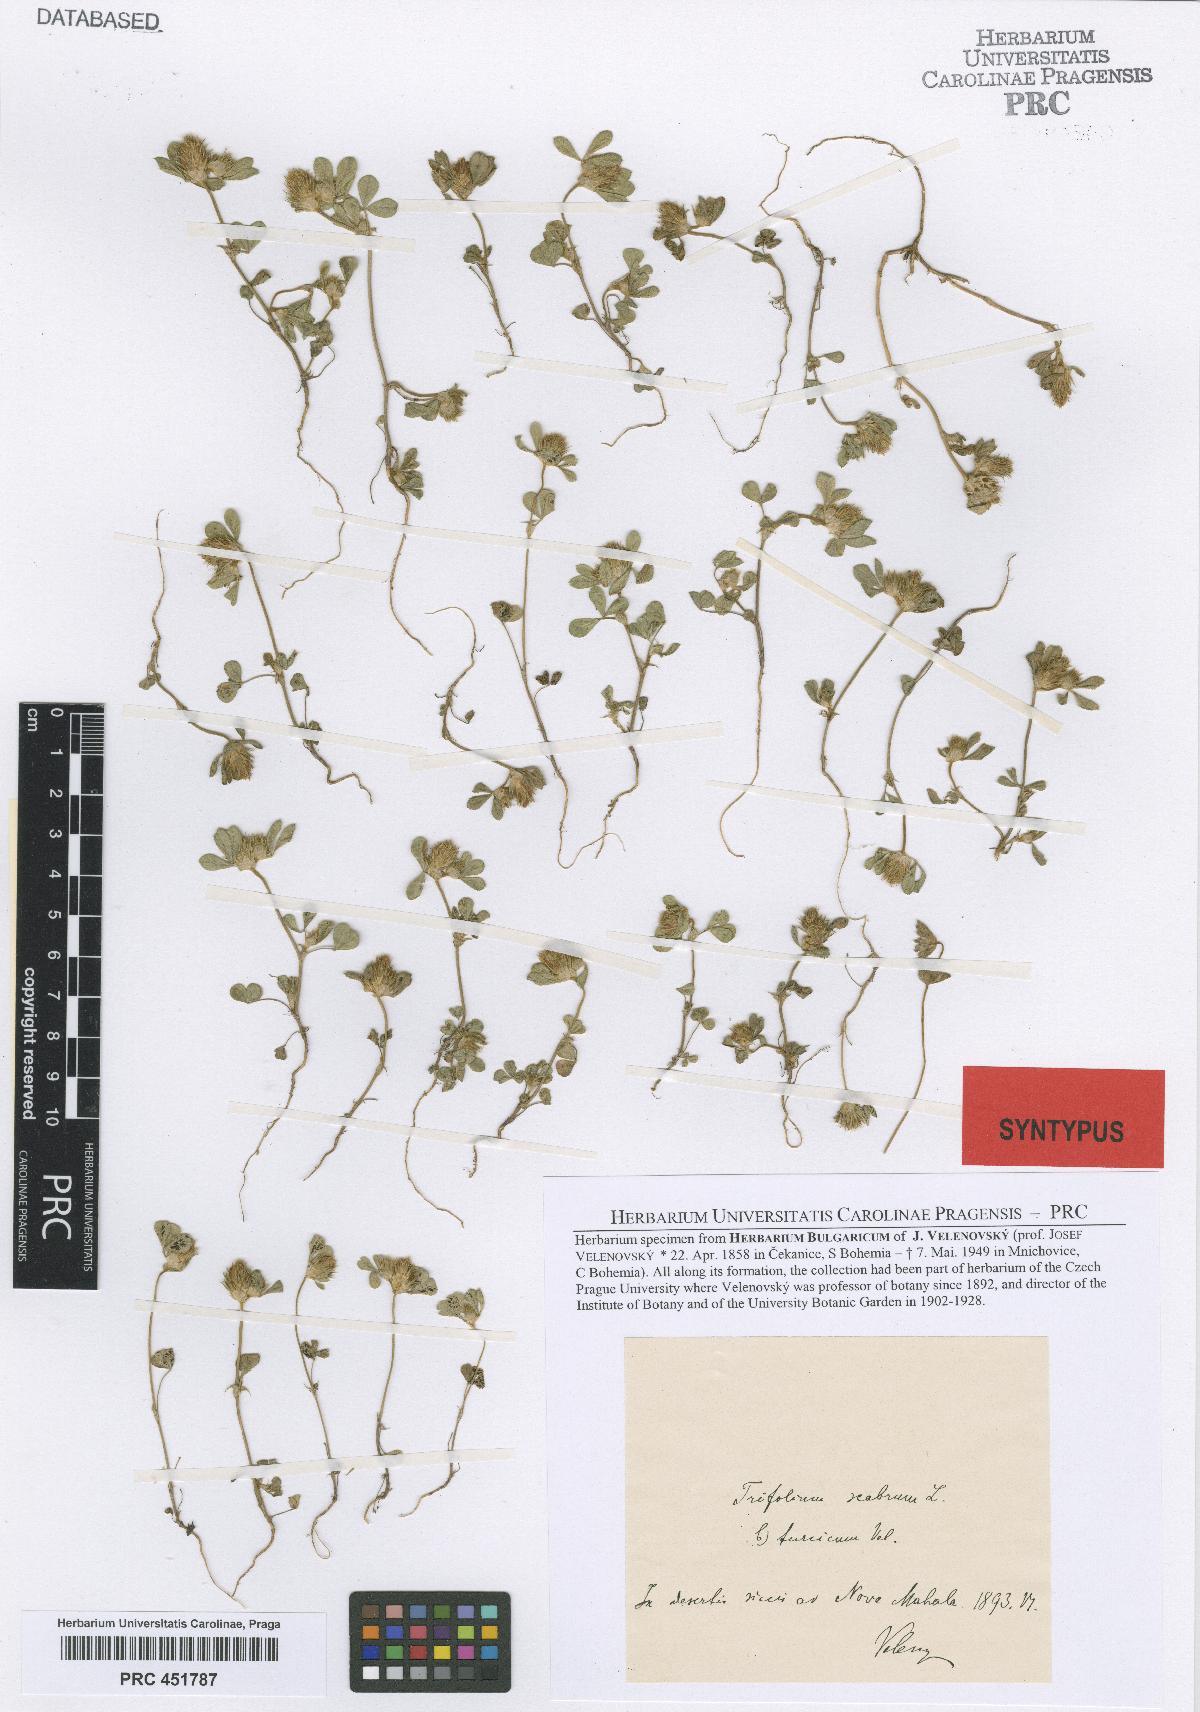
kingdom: Plantae
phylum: Tracheophyta
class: Magnoliopsida
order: Fabales
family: Fabaceae
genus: Trifolium
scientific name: Trifolium lucanicum
